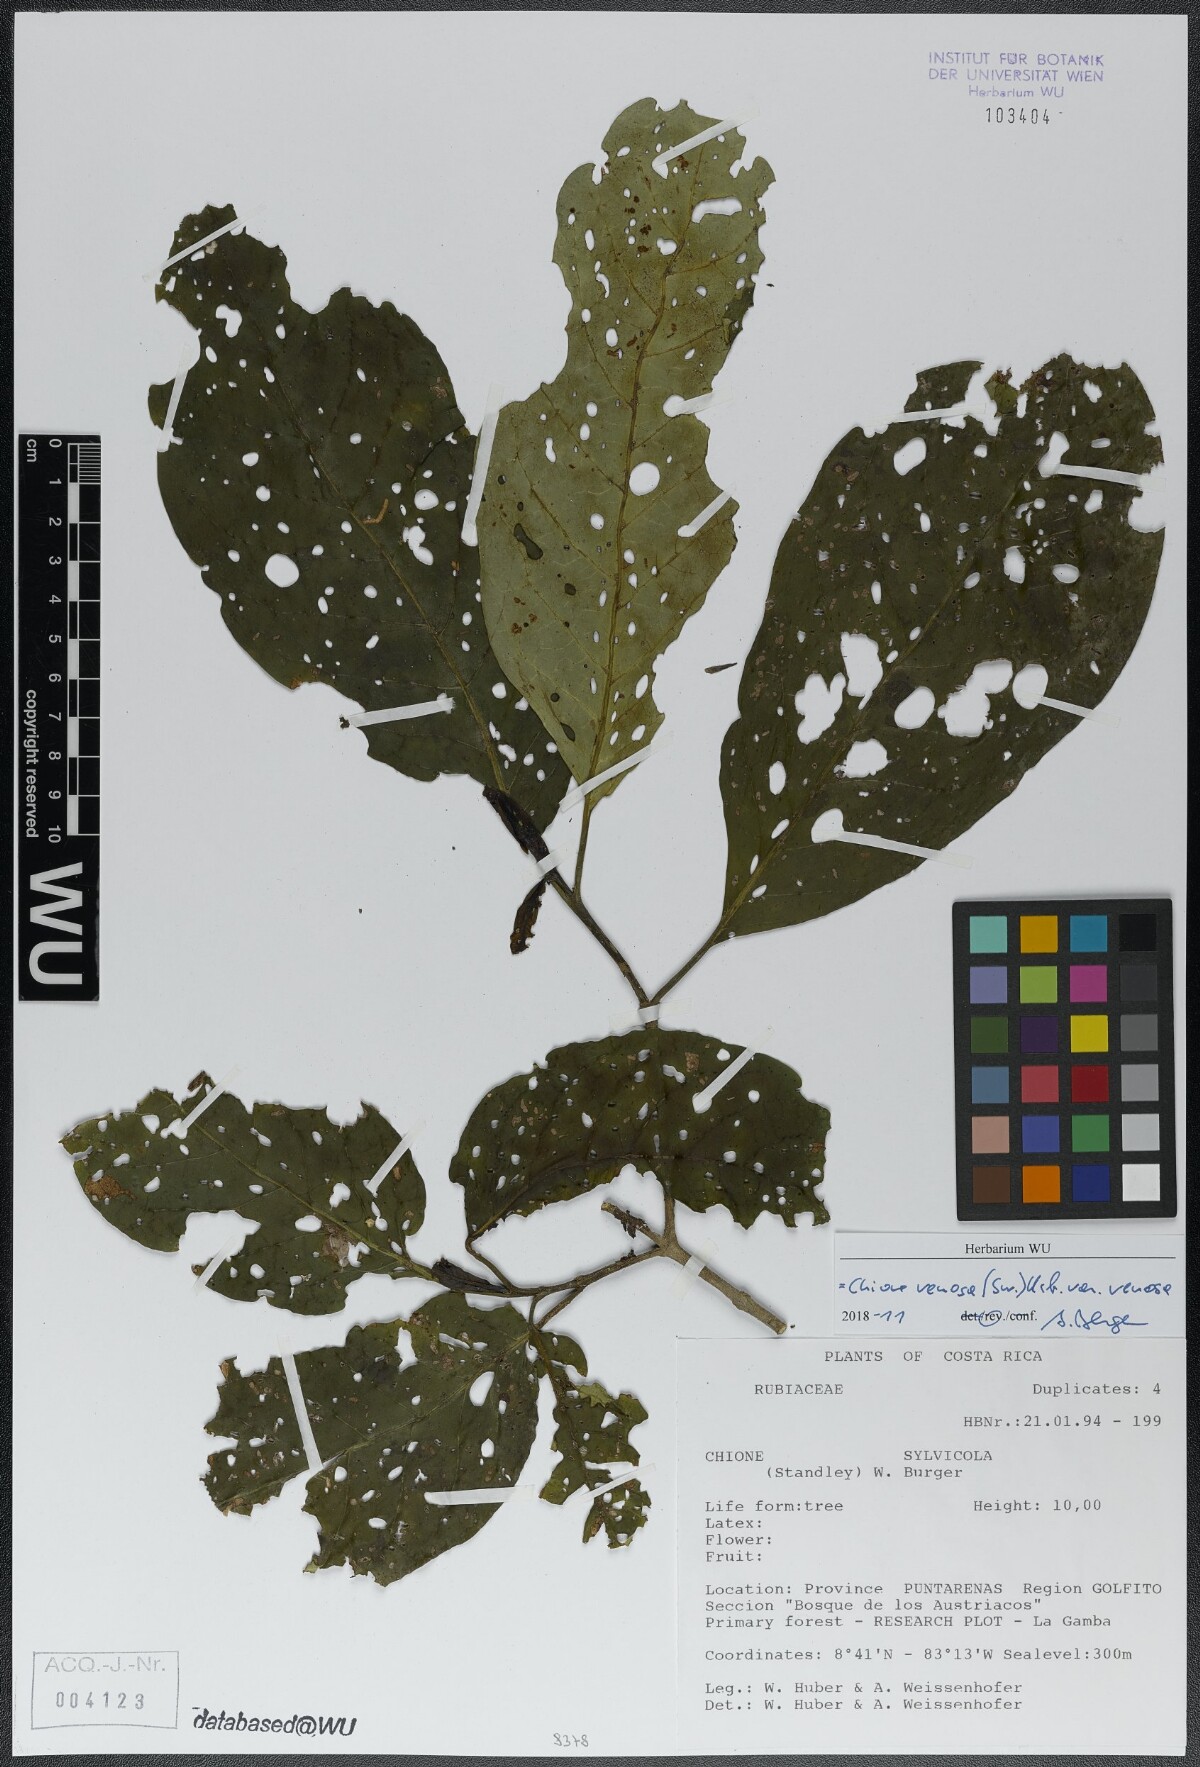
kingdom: Plantae
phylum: Tracheophyta
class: Magnoliopsida
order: Gentianales
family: Rubiaceae
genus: Chione
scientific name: Chione venosa
